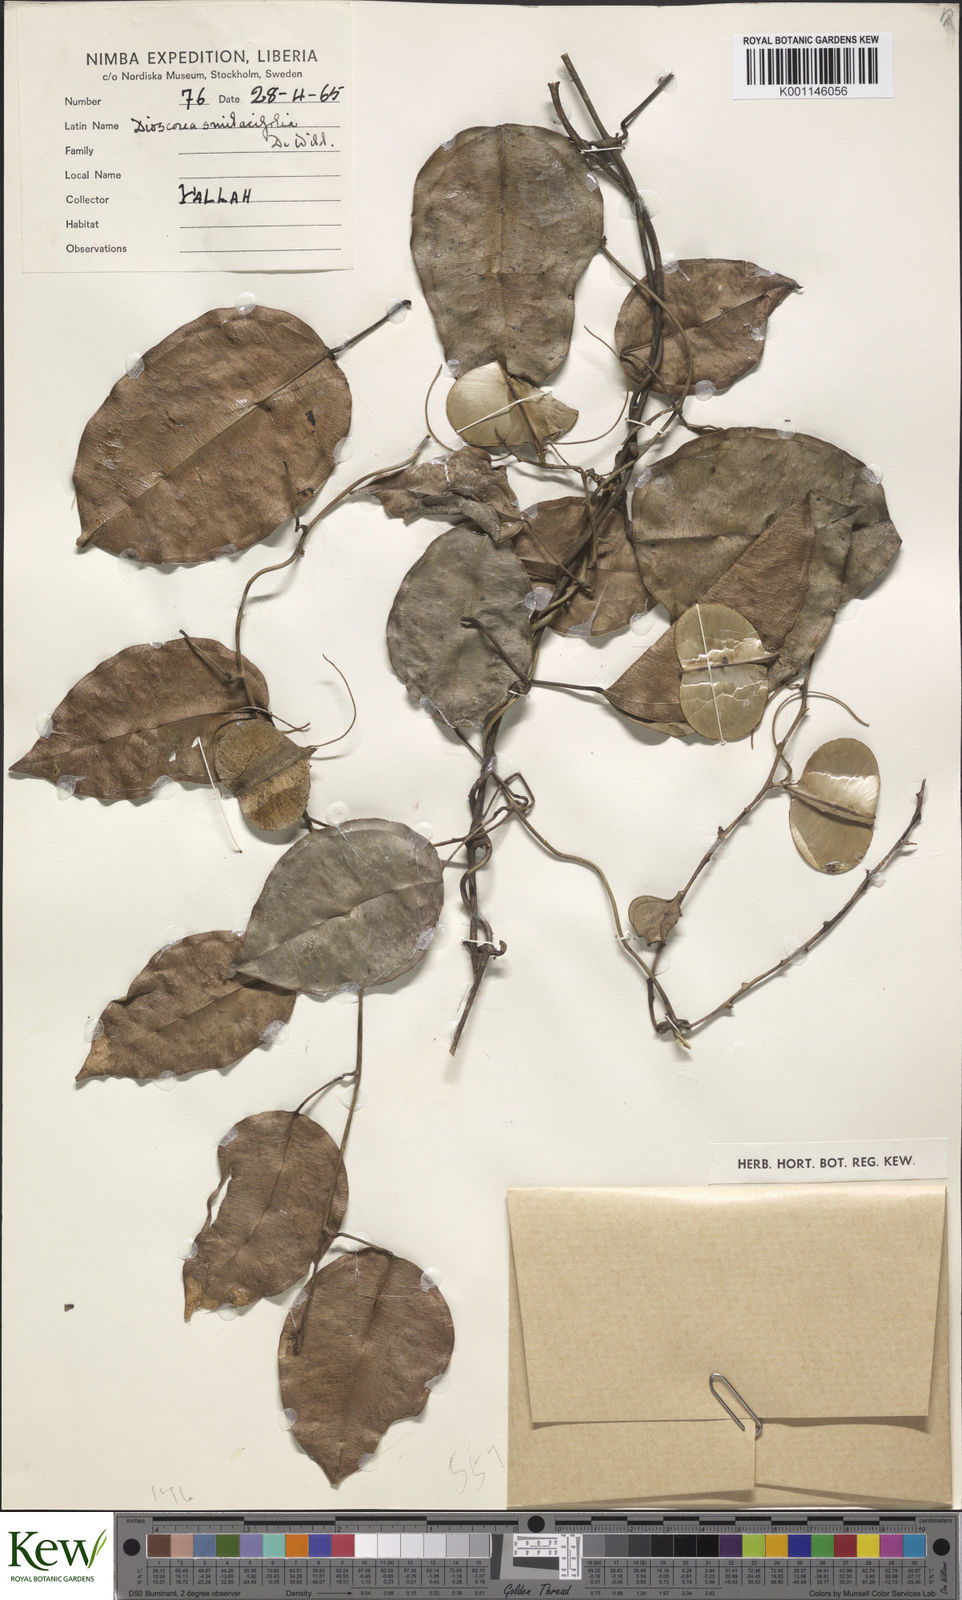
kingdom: Plantae
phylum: Tracheophyta
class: Liliopsida
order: Dioscoreales
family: Dioscoreaceae
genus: Dioscorea
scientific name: Dioscorea smilacifolia
